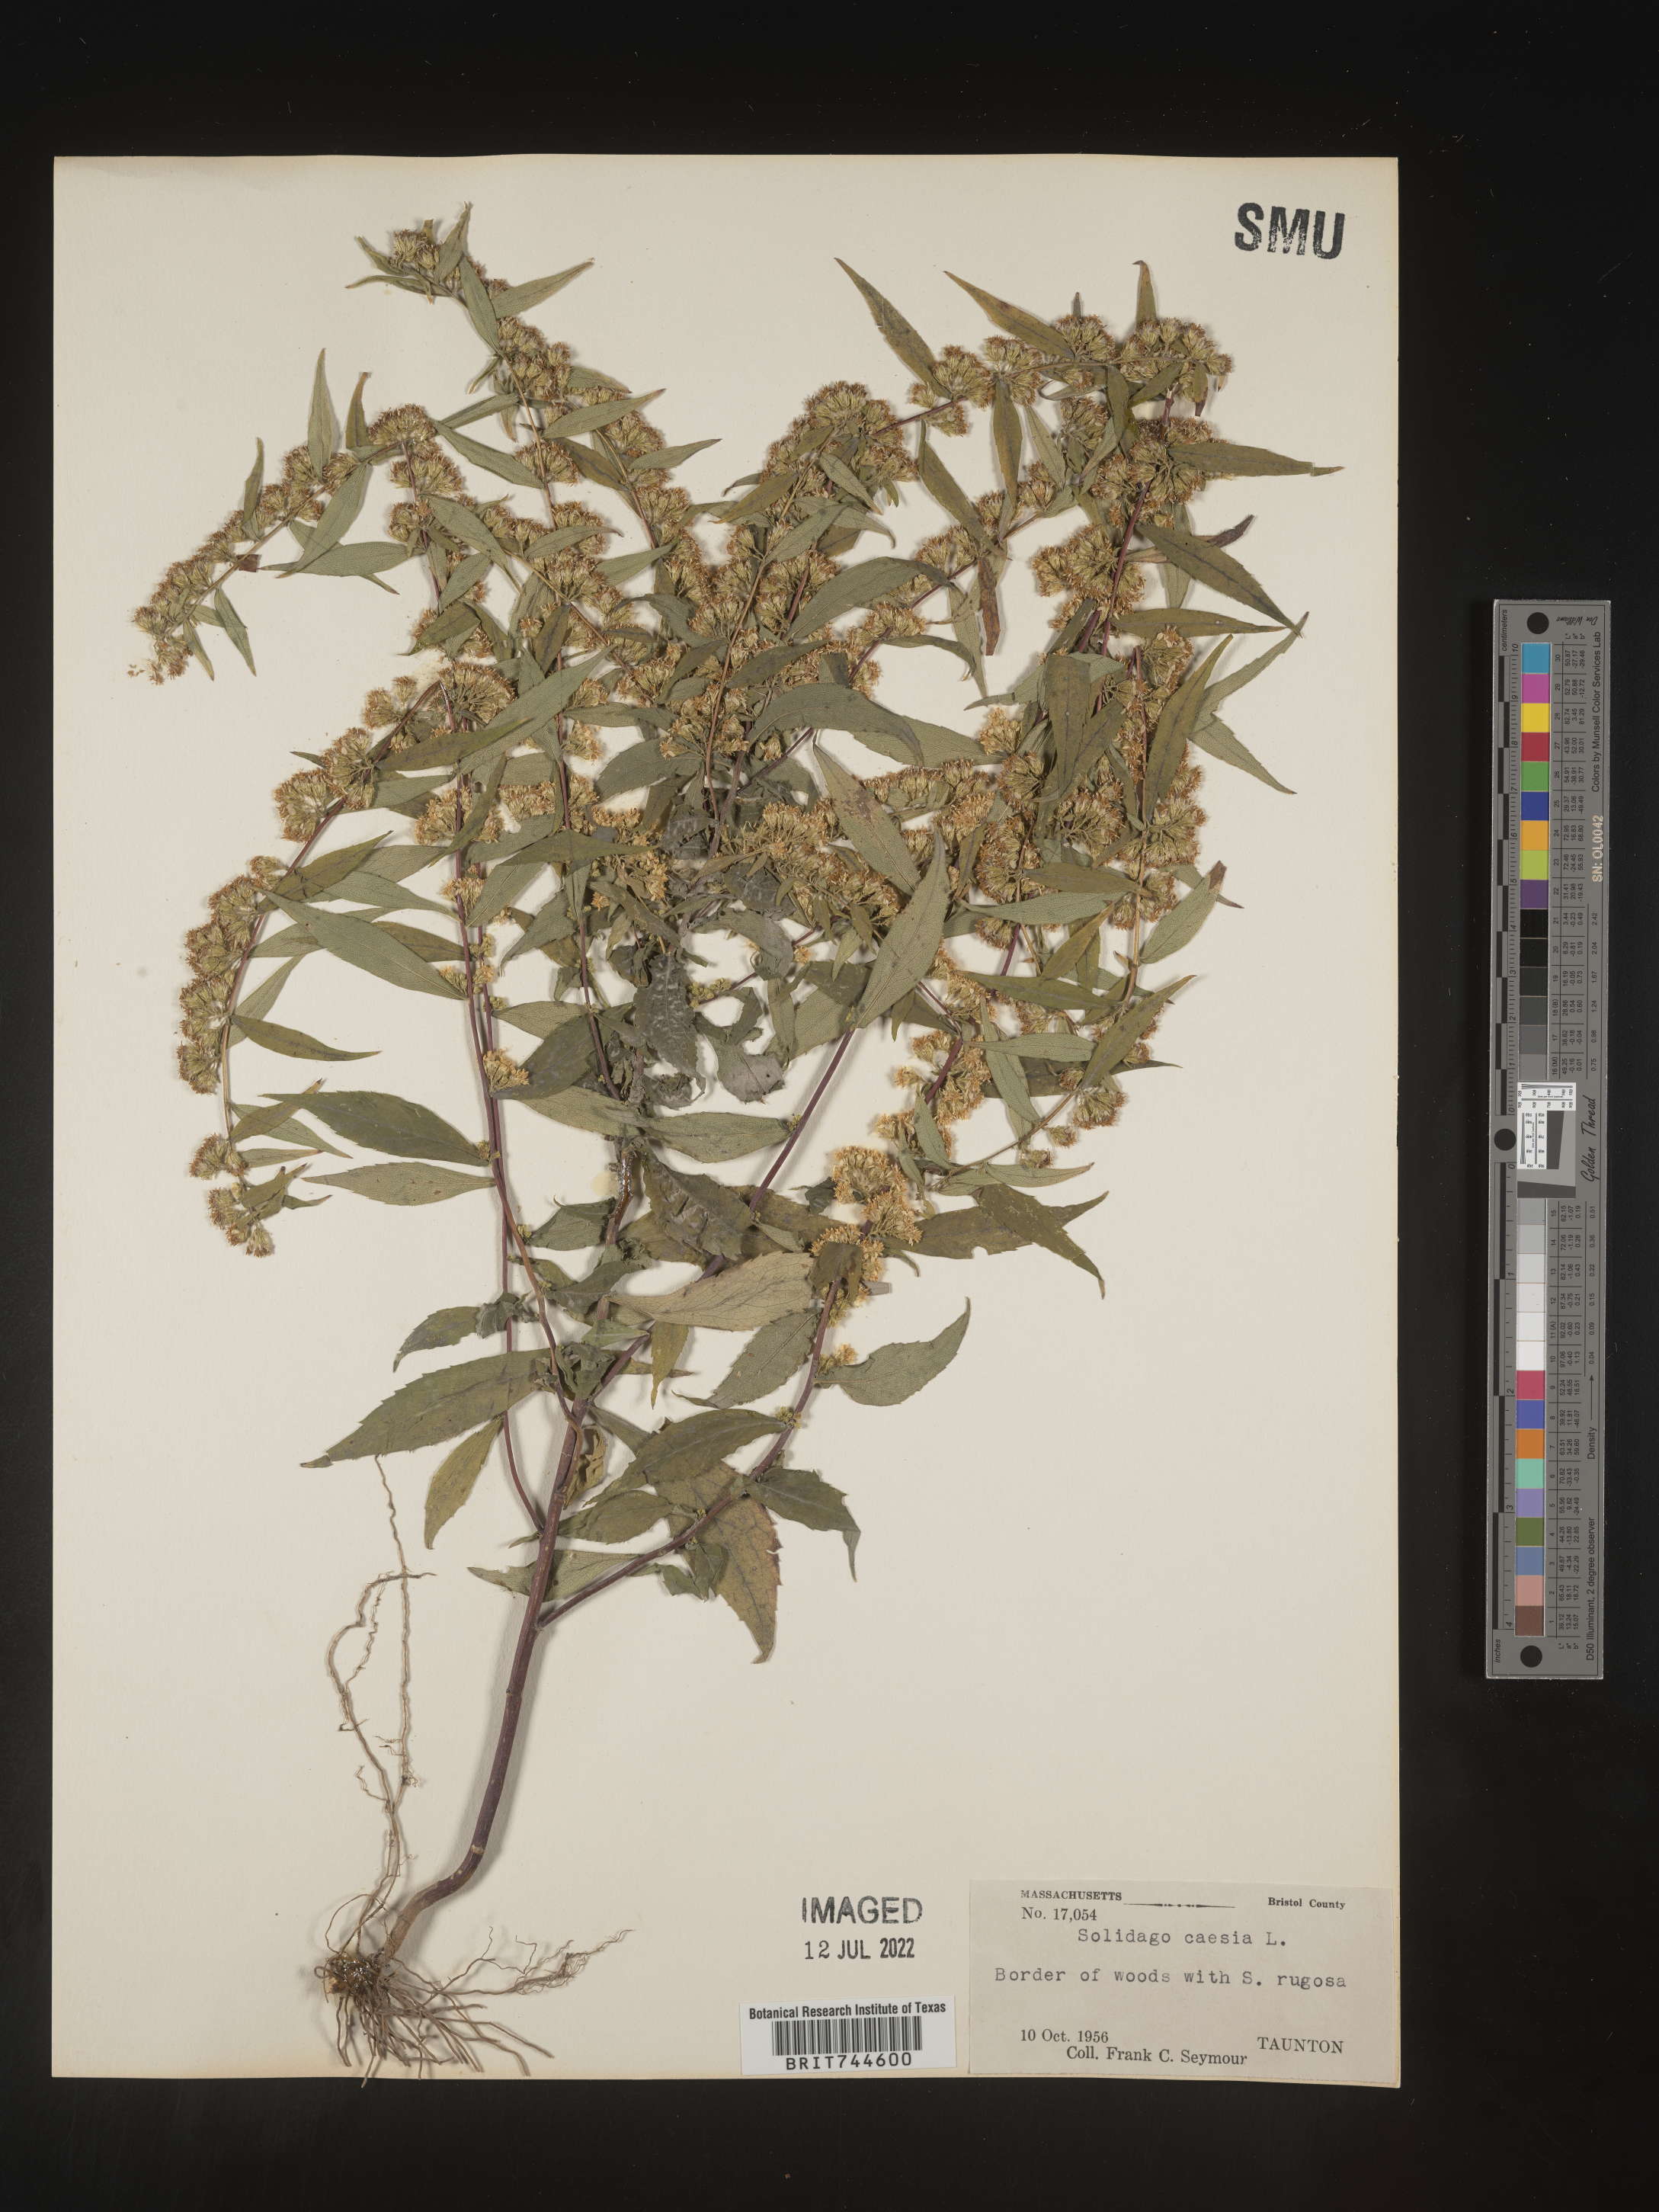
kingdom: Plantae
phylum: Tracheophyta
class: Magnoliopsida
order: Asterales
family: Asteraceae
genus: Solidago
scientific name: Solidago caesia
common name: Woodland goldenrod
